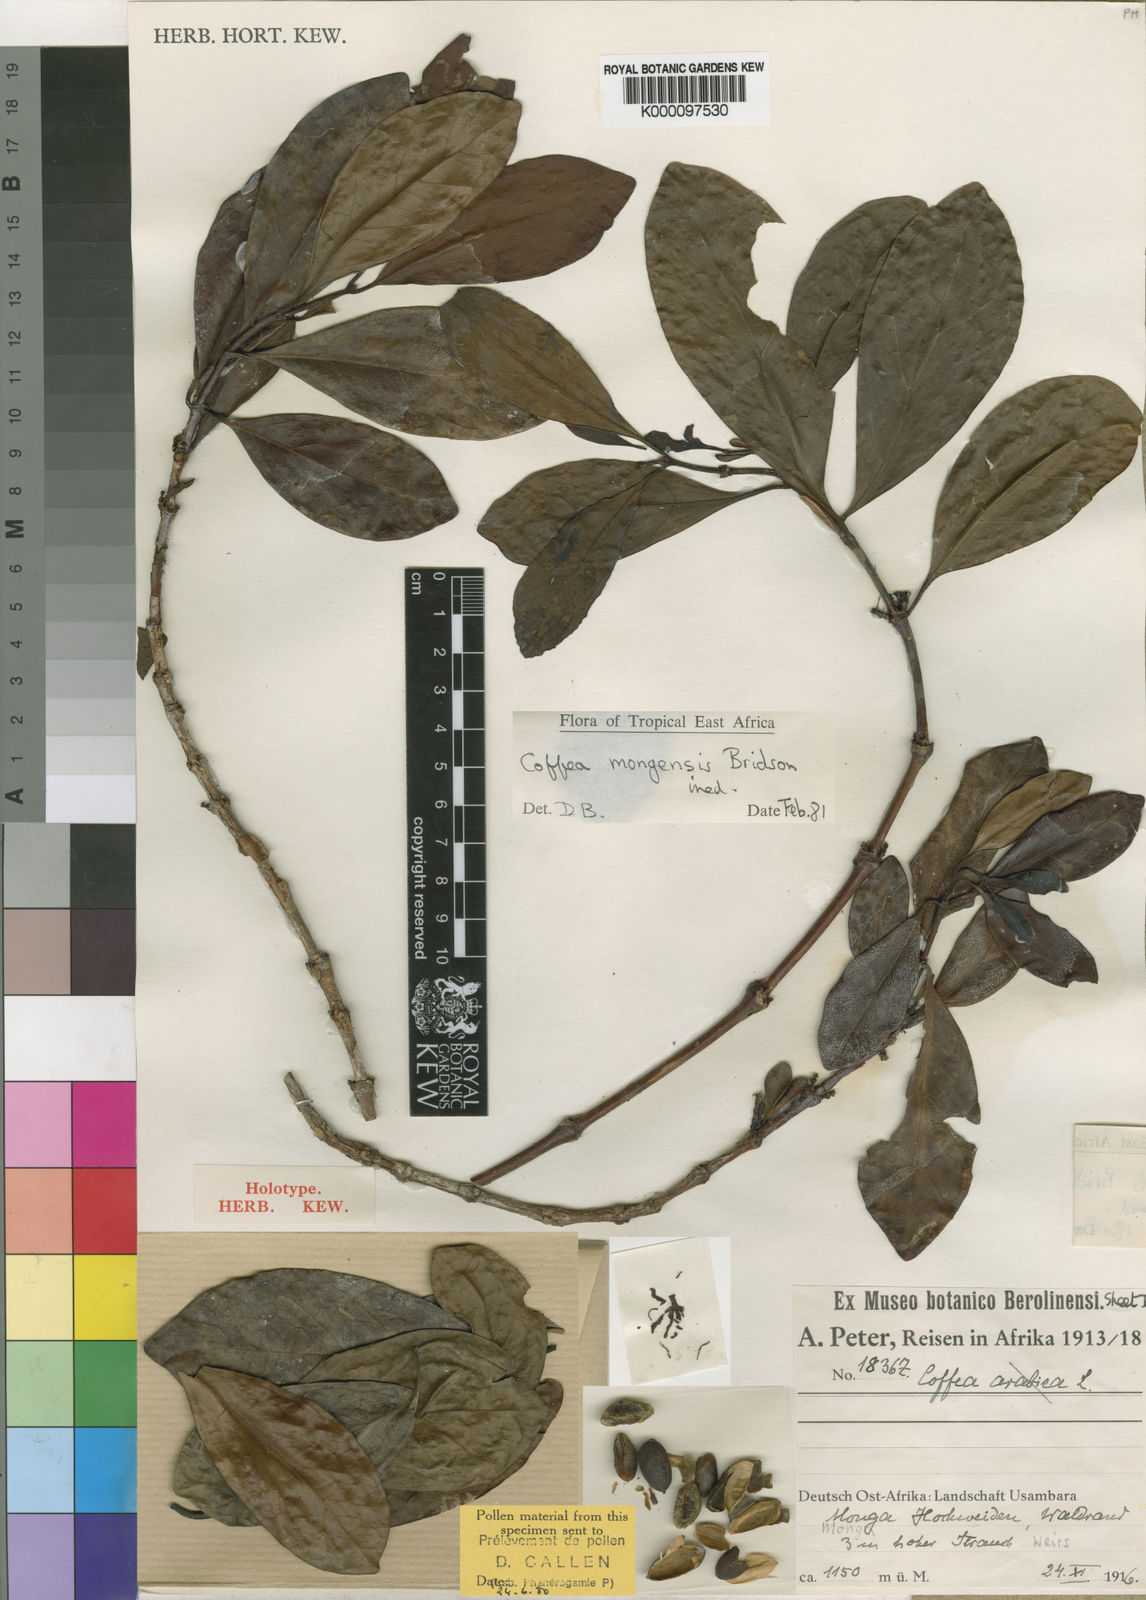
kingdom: Plantae
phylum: Tracheophyta
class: Magnoliopsida
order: Gentianales
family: Rubiaceae
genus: Coffea
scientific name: Coffea mongensis
